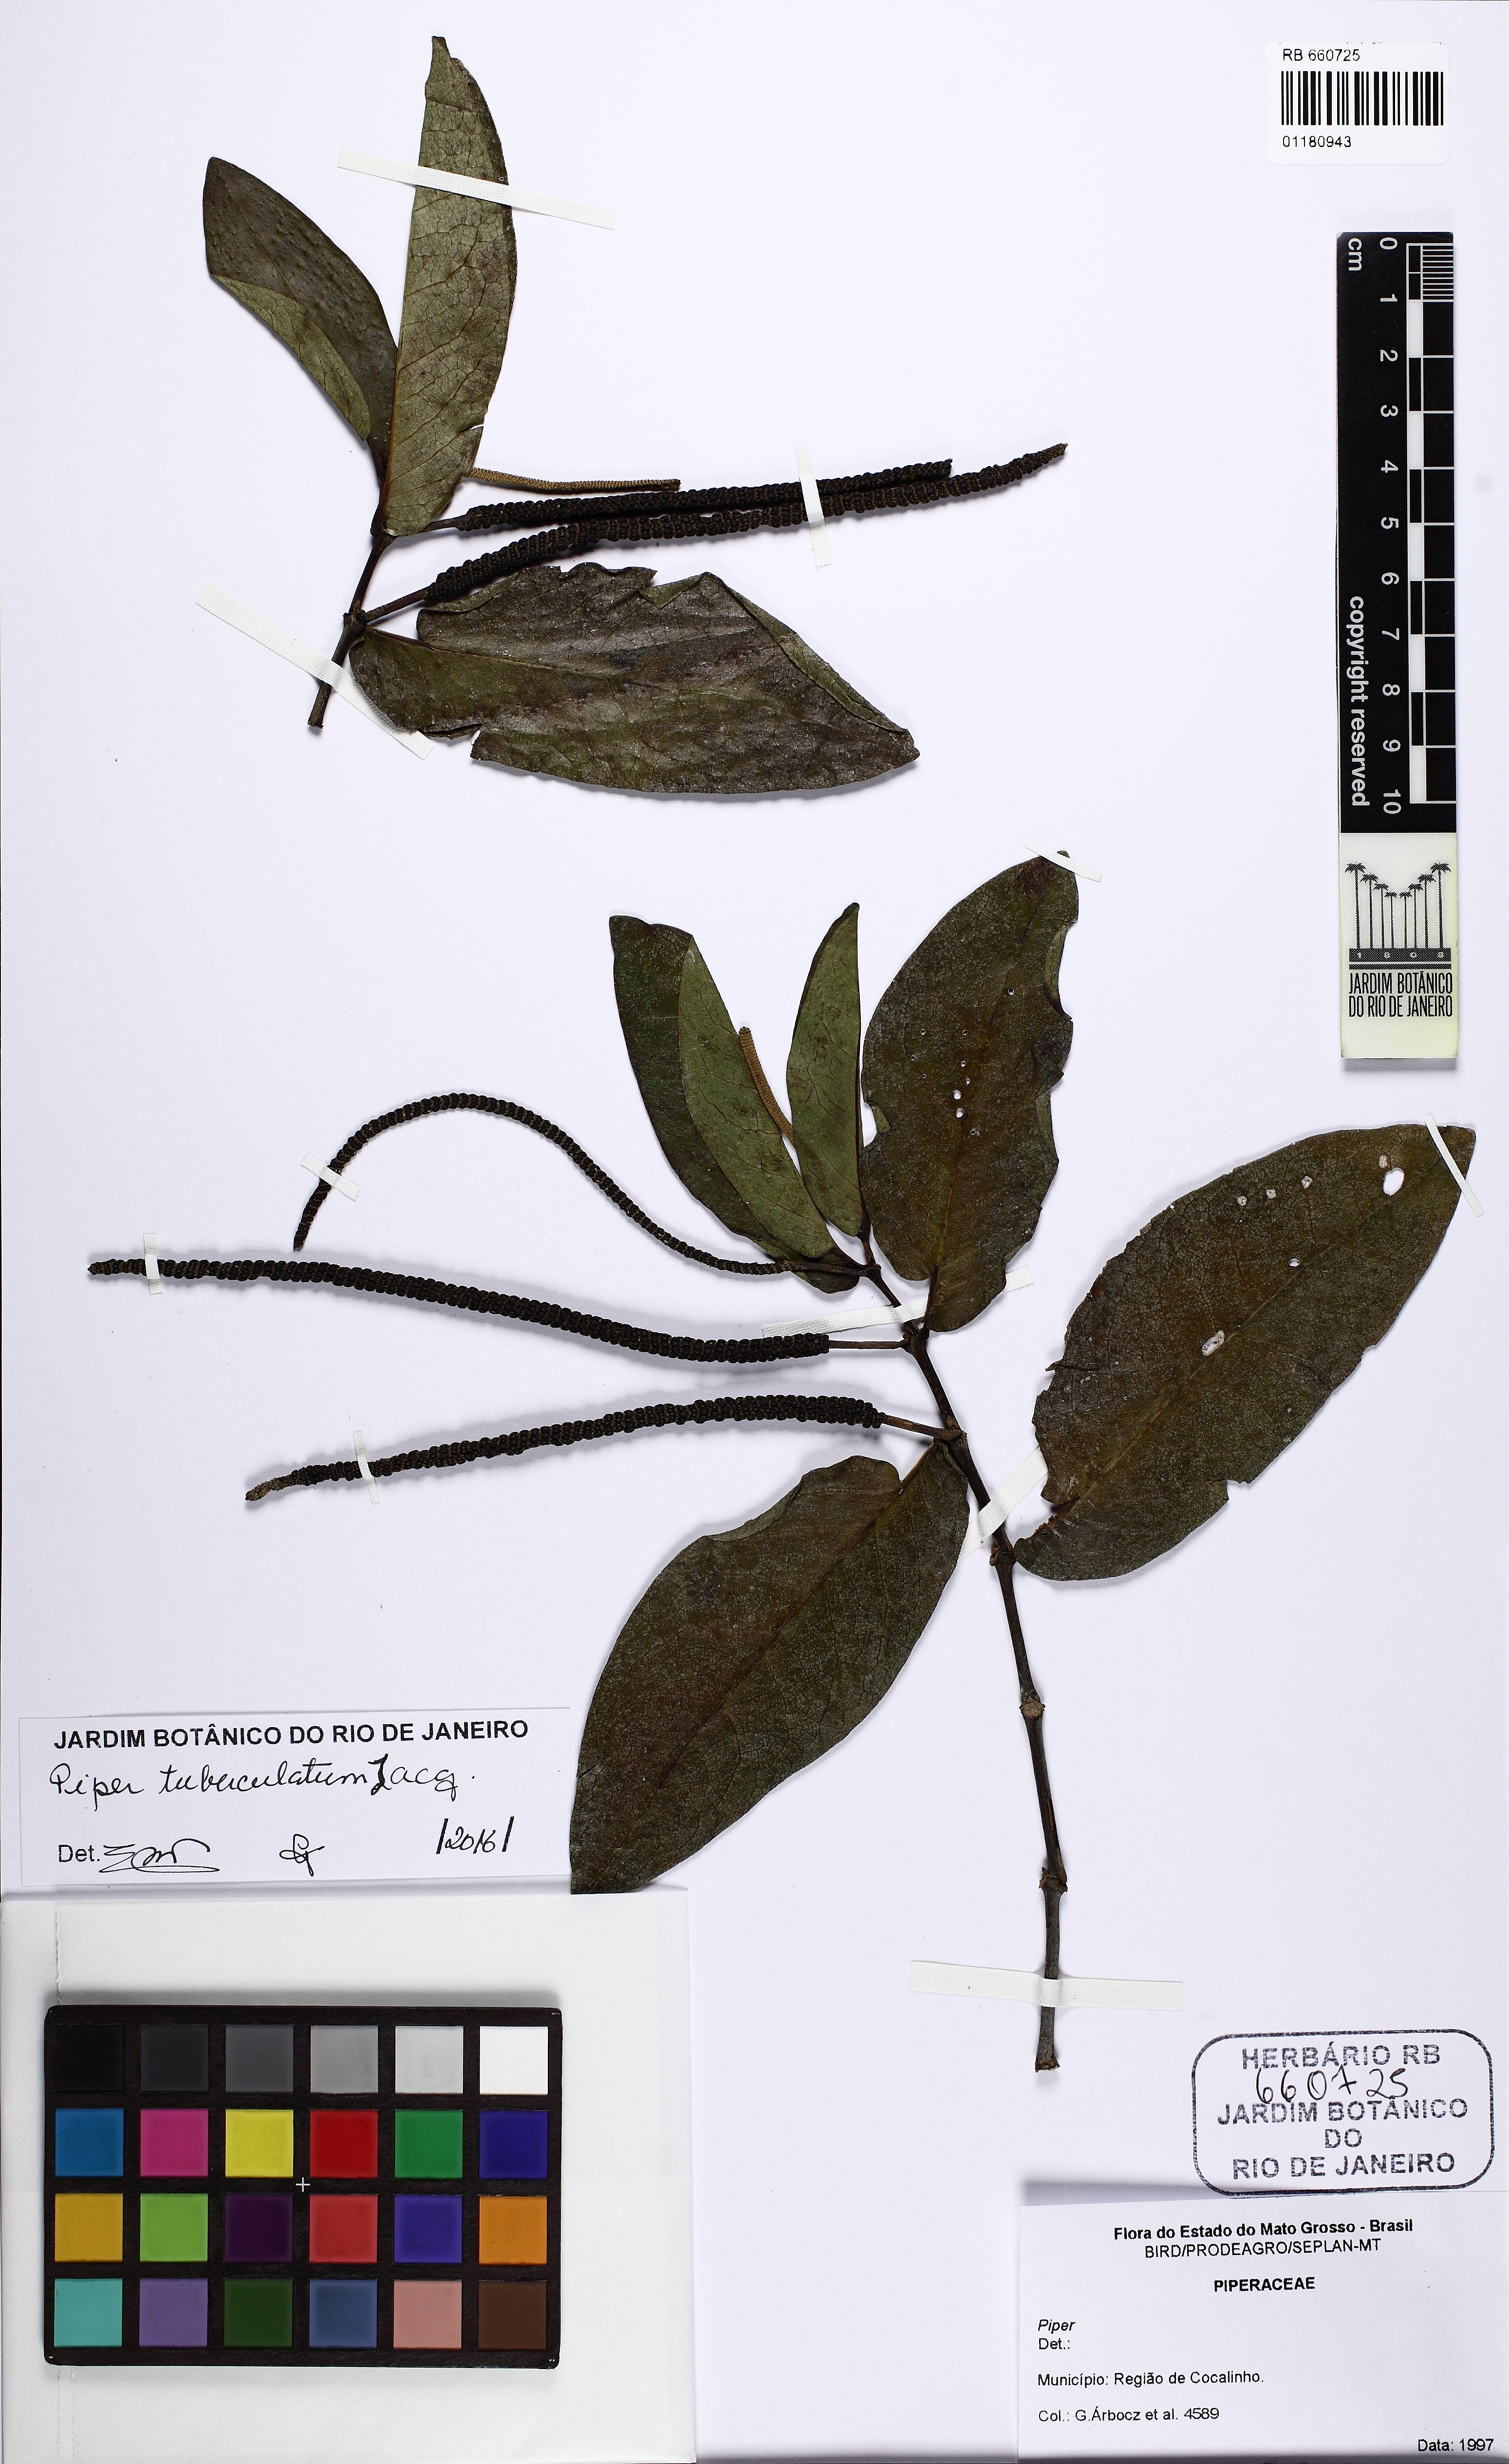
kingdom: Plantae
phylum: Tracheophyta
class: Magnoliopsida
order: Piperales
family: Piperaceae
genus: Piper
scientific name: Piper tuberculatum
